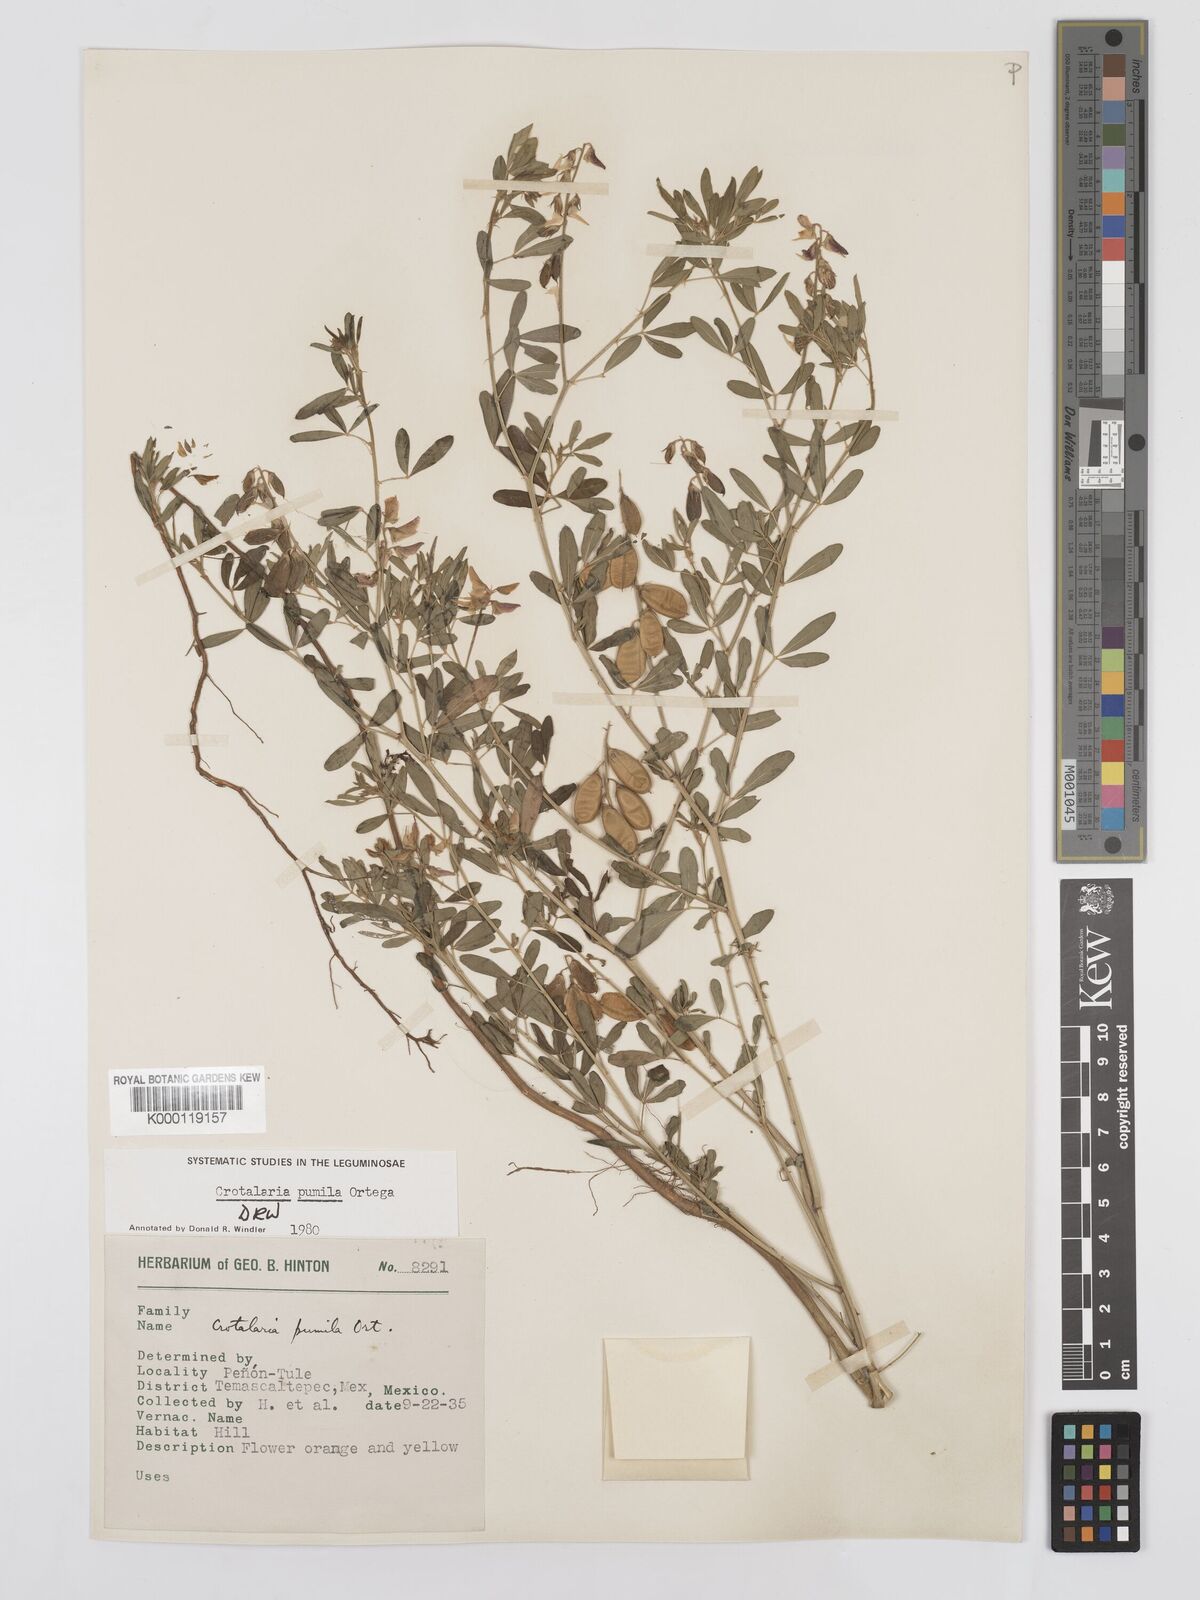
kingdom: Plantae
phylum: Tracheophyta
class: Magnoliopsida
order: Fabales
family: Fabaceae
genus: Crotalaria
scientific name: Crotalaria pumila
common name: Low rattlebox
